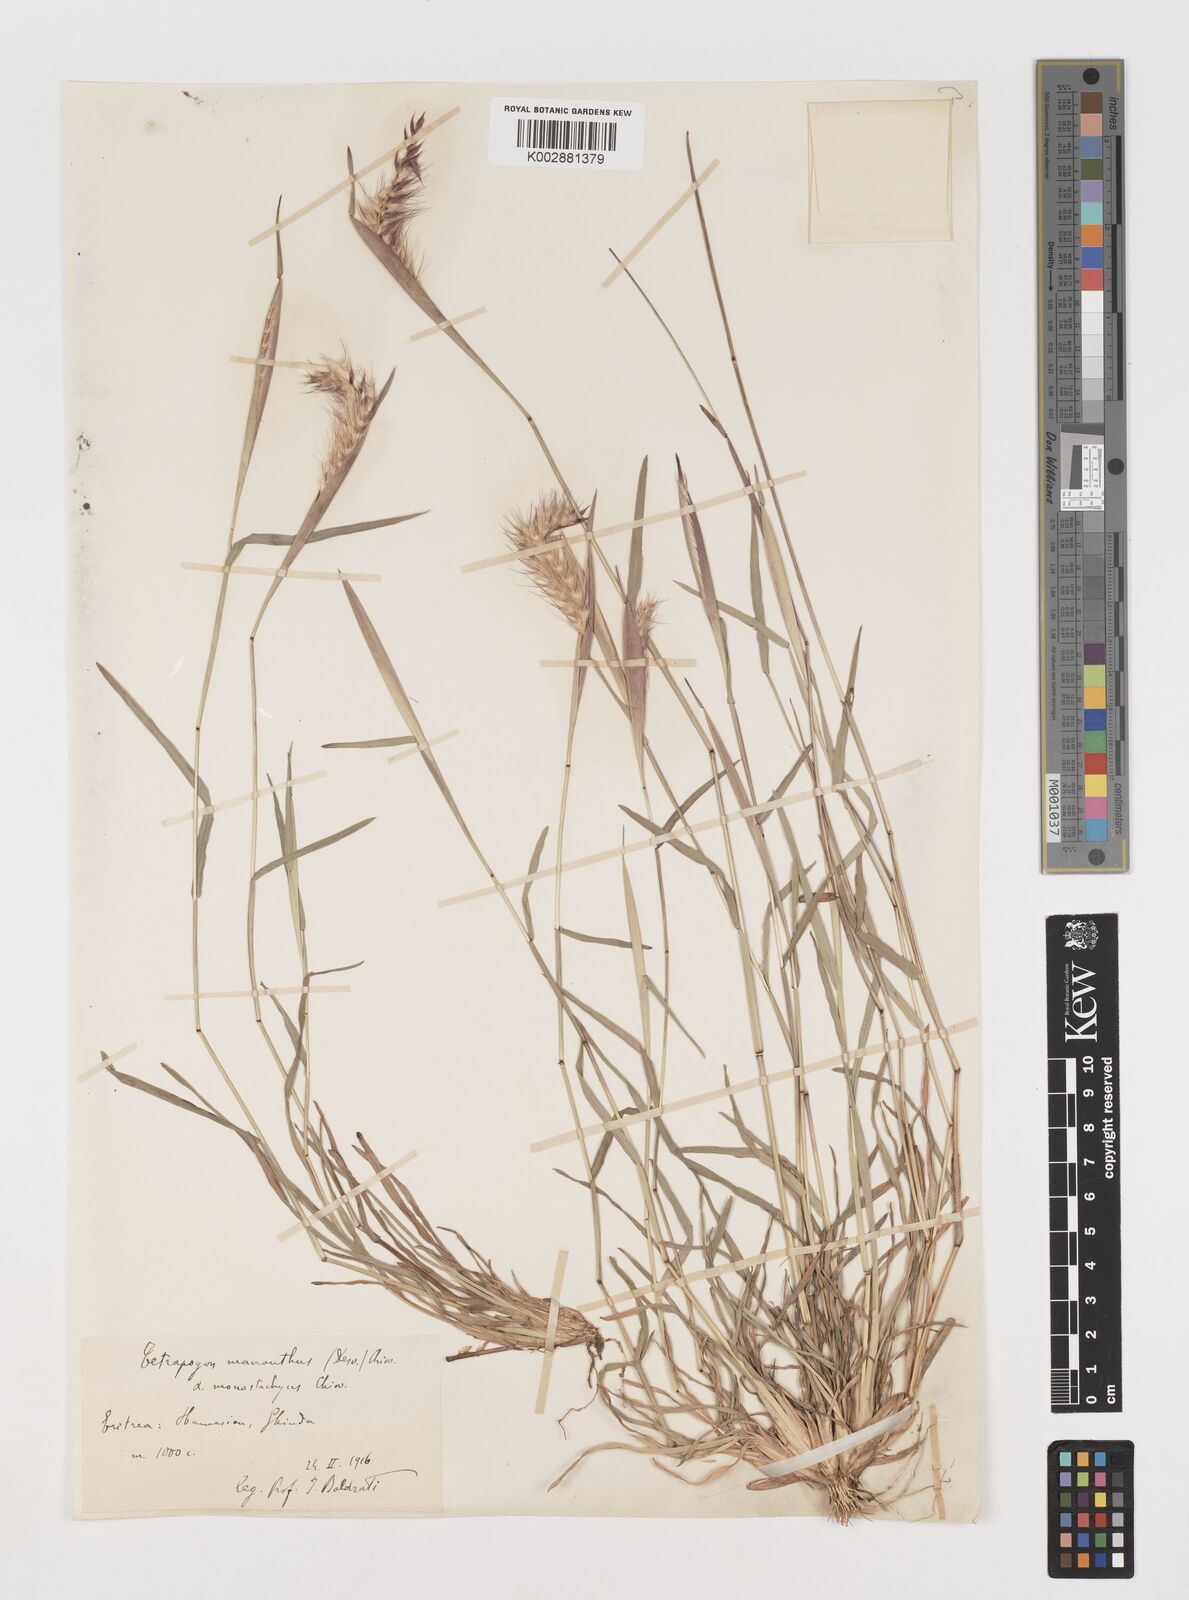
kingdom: Plantae
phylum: Tracheophyta
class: Liliopsida
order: Poales
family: Poaceae
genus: Tetrapogon
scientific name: Tetrapogon cenchriformis
